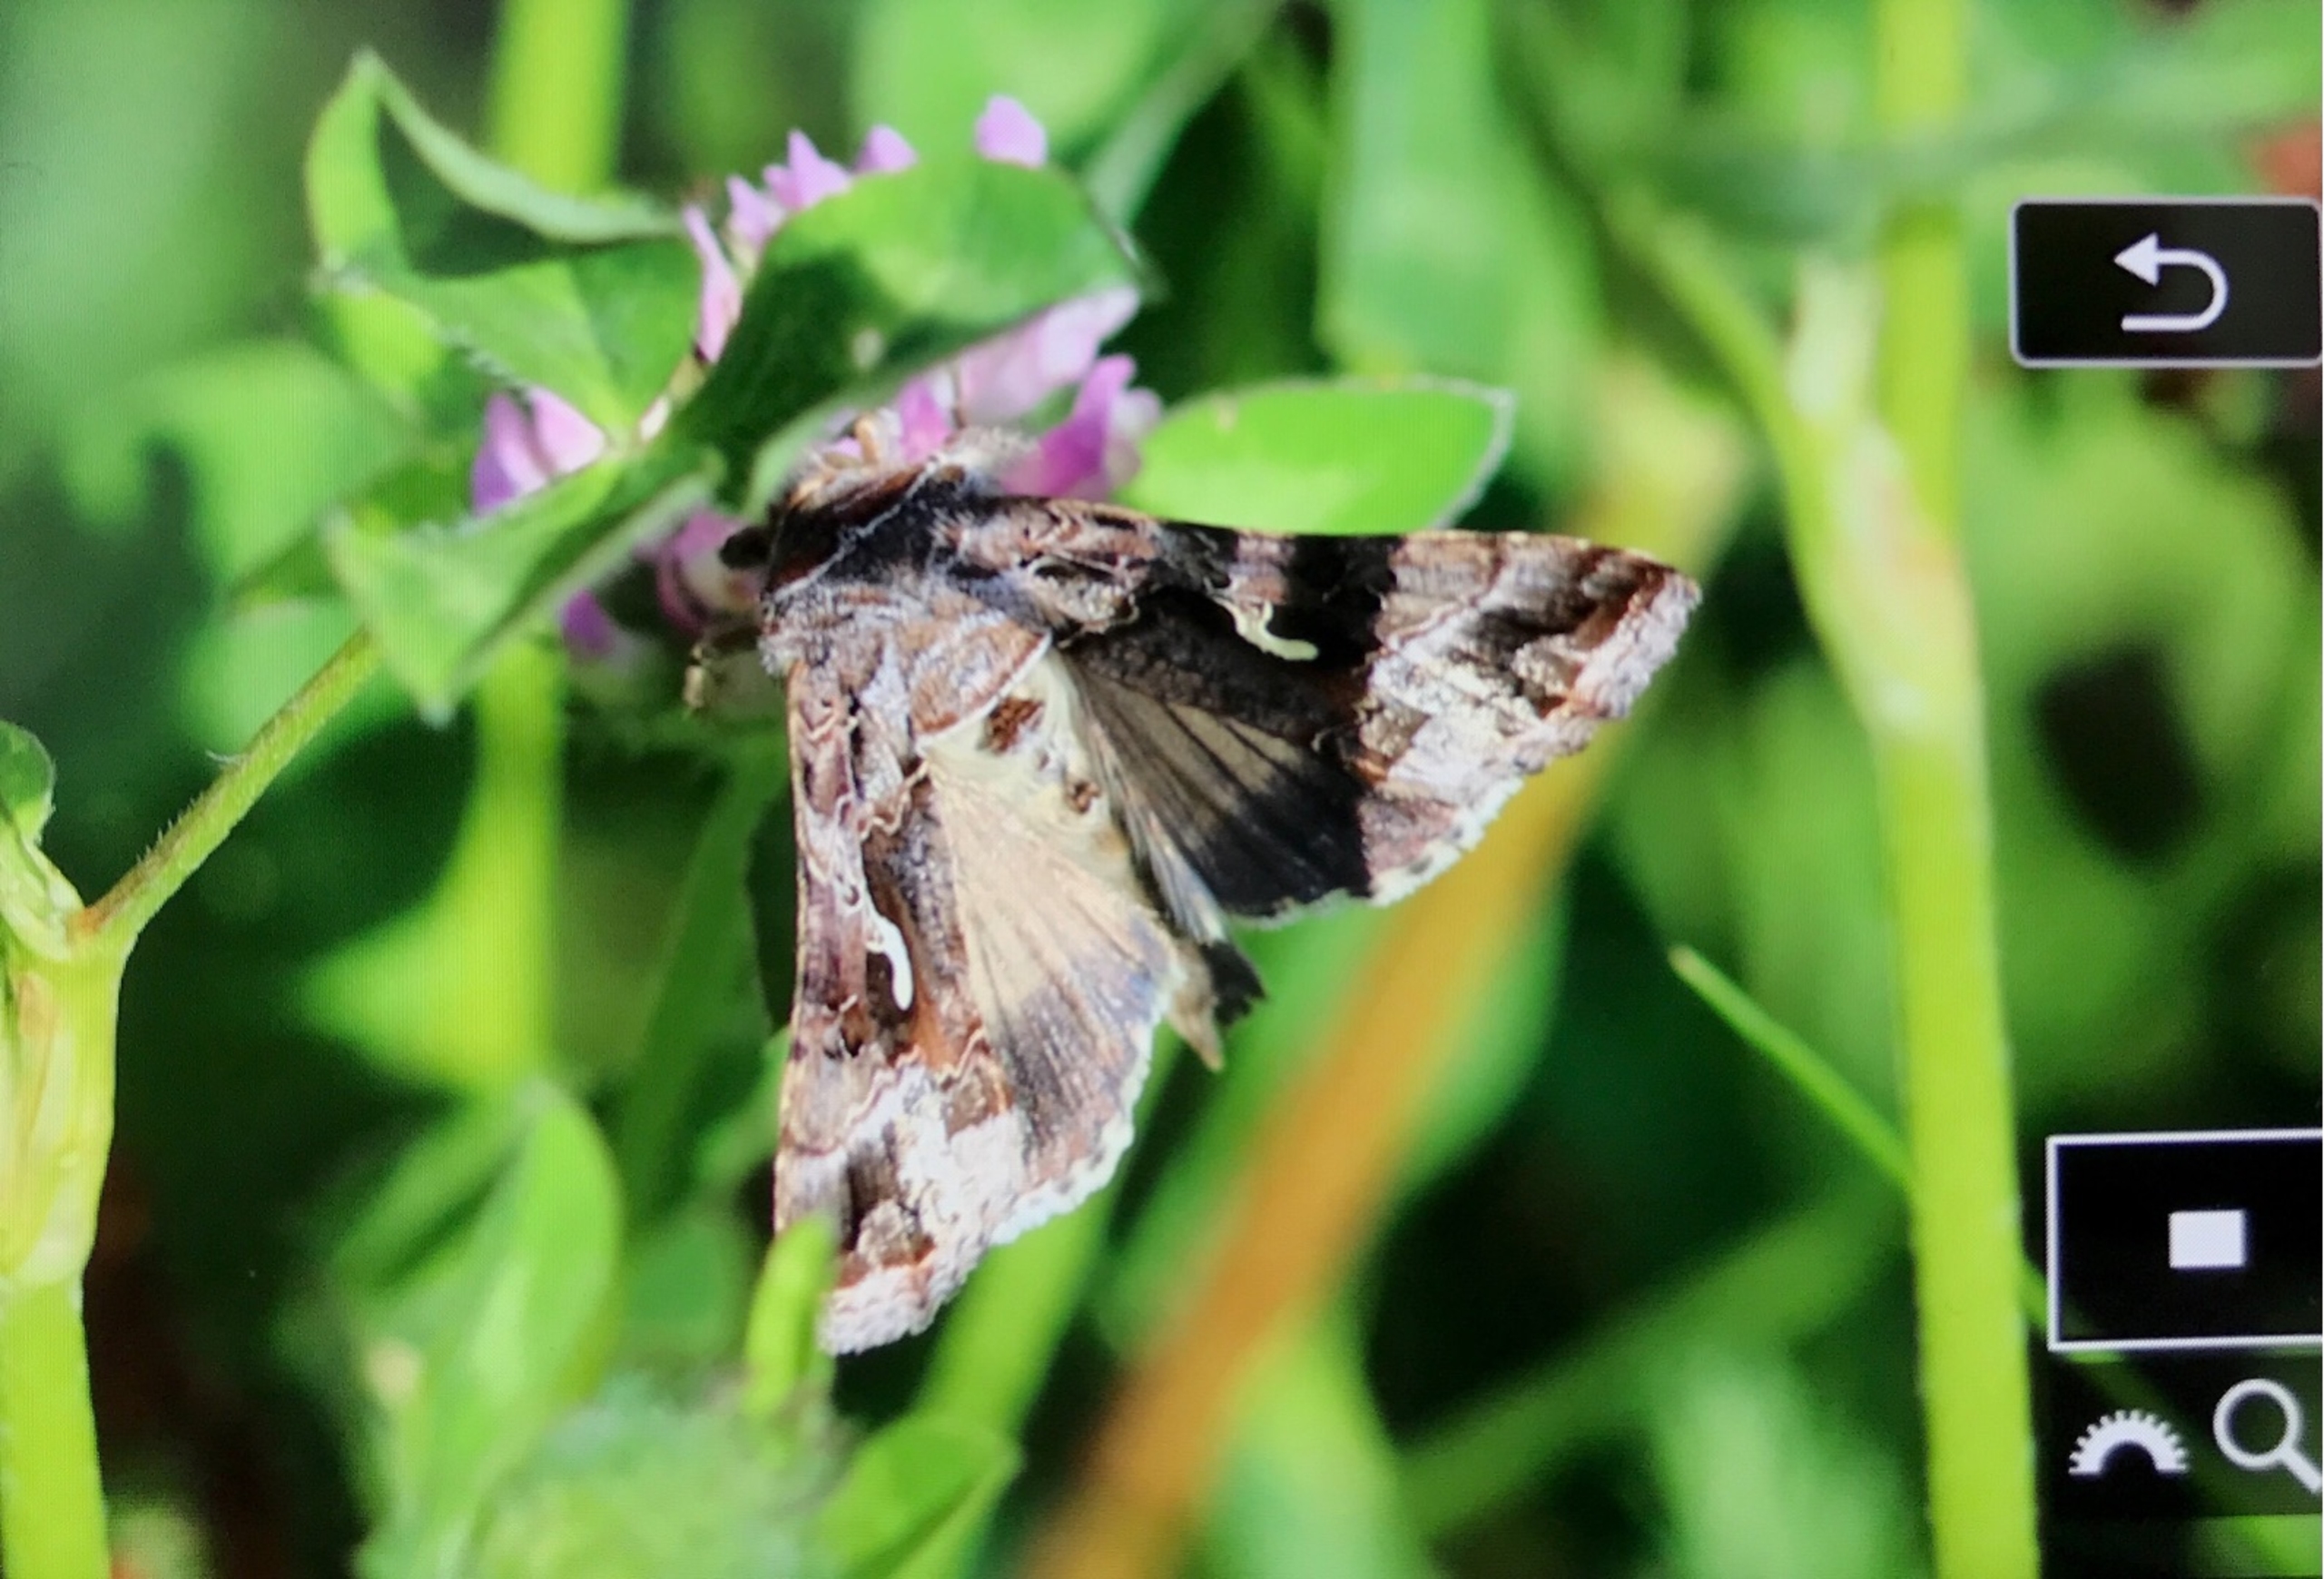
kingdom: Animalia
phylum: Arthropoda
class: Insecta
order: Lepidoptera
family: Noctuidae
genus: Autographa
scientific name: Autographa gamma
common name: Gammaugle
